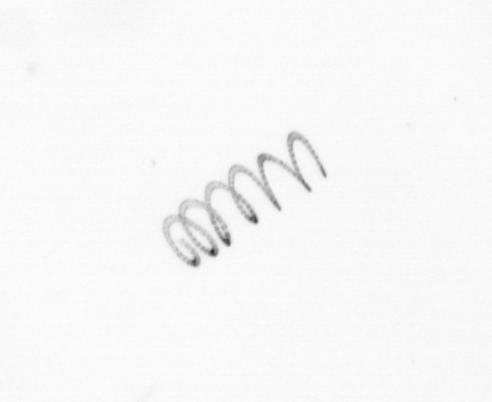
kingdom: Chromista
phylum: Ochrophyta
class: Bacillariophyceae
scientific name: Bacillariophyceae
